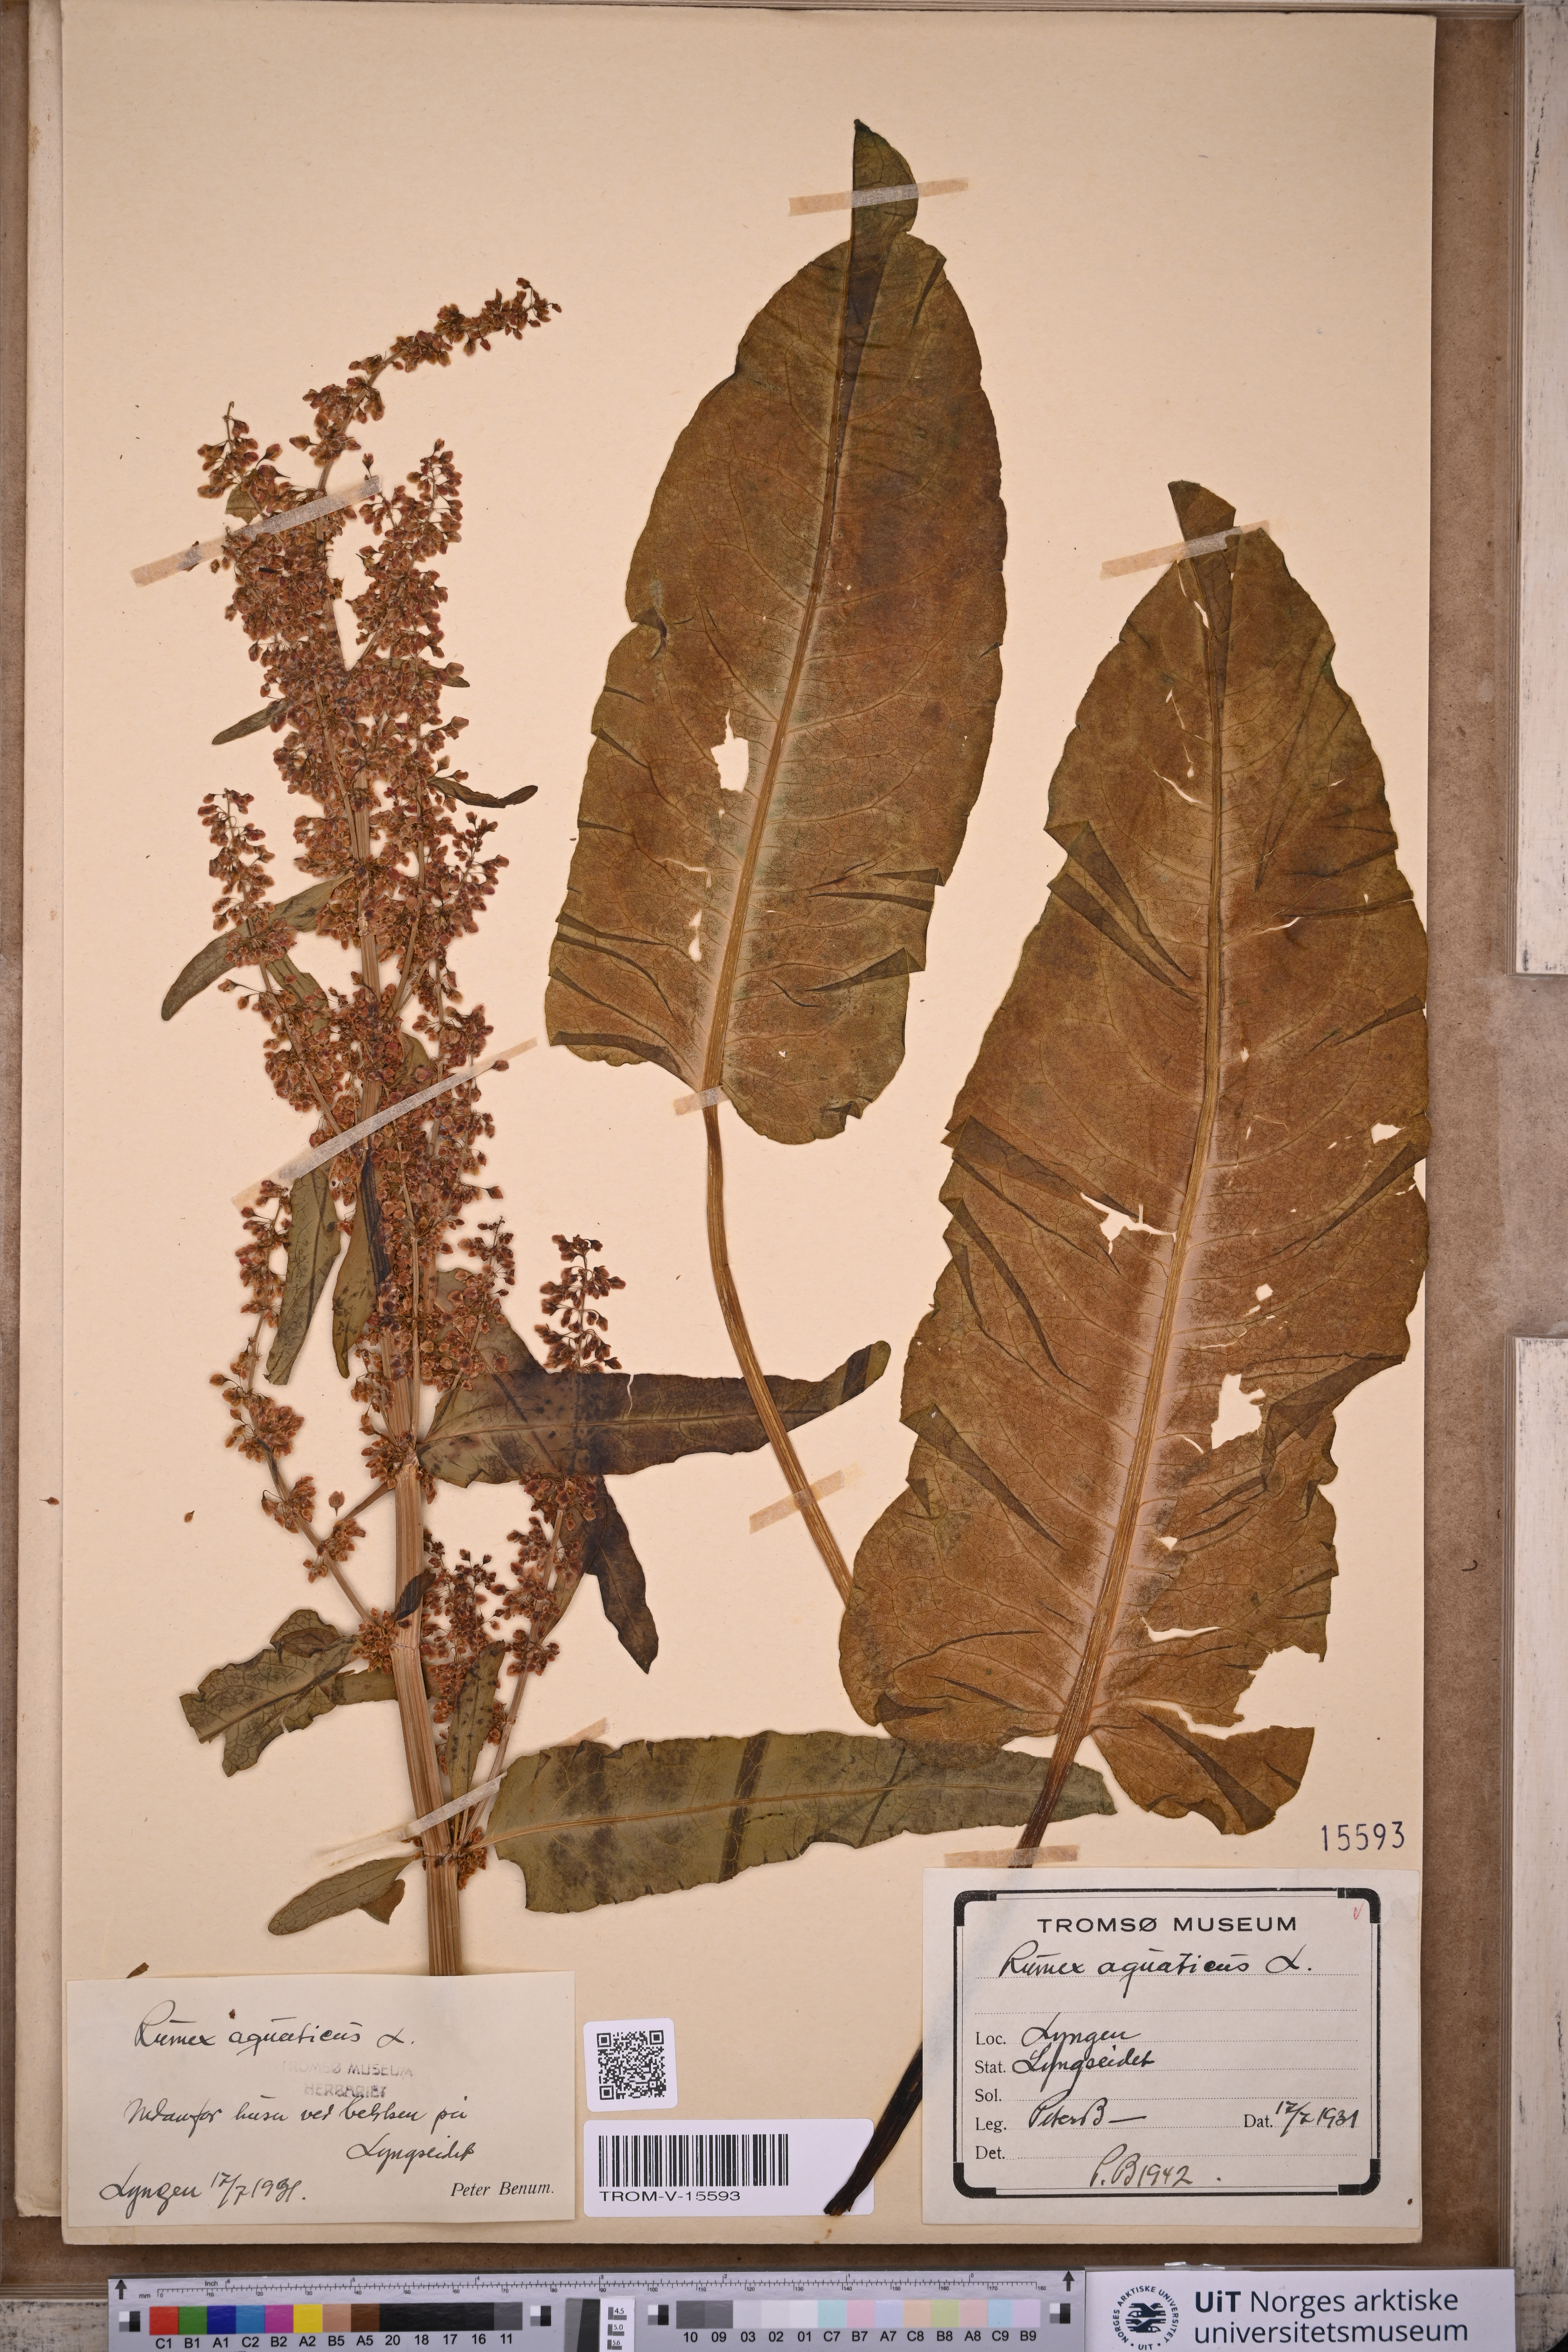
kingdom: Plantae
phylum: Tracheophyta
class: Magnoliopsida
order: Caryophyllales
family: Polygonaceae
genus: Rumex
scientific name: Rumex aquaticus
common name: Scottish dock
